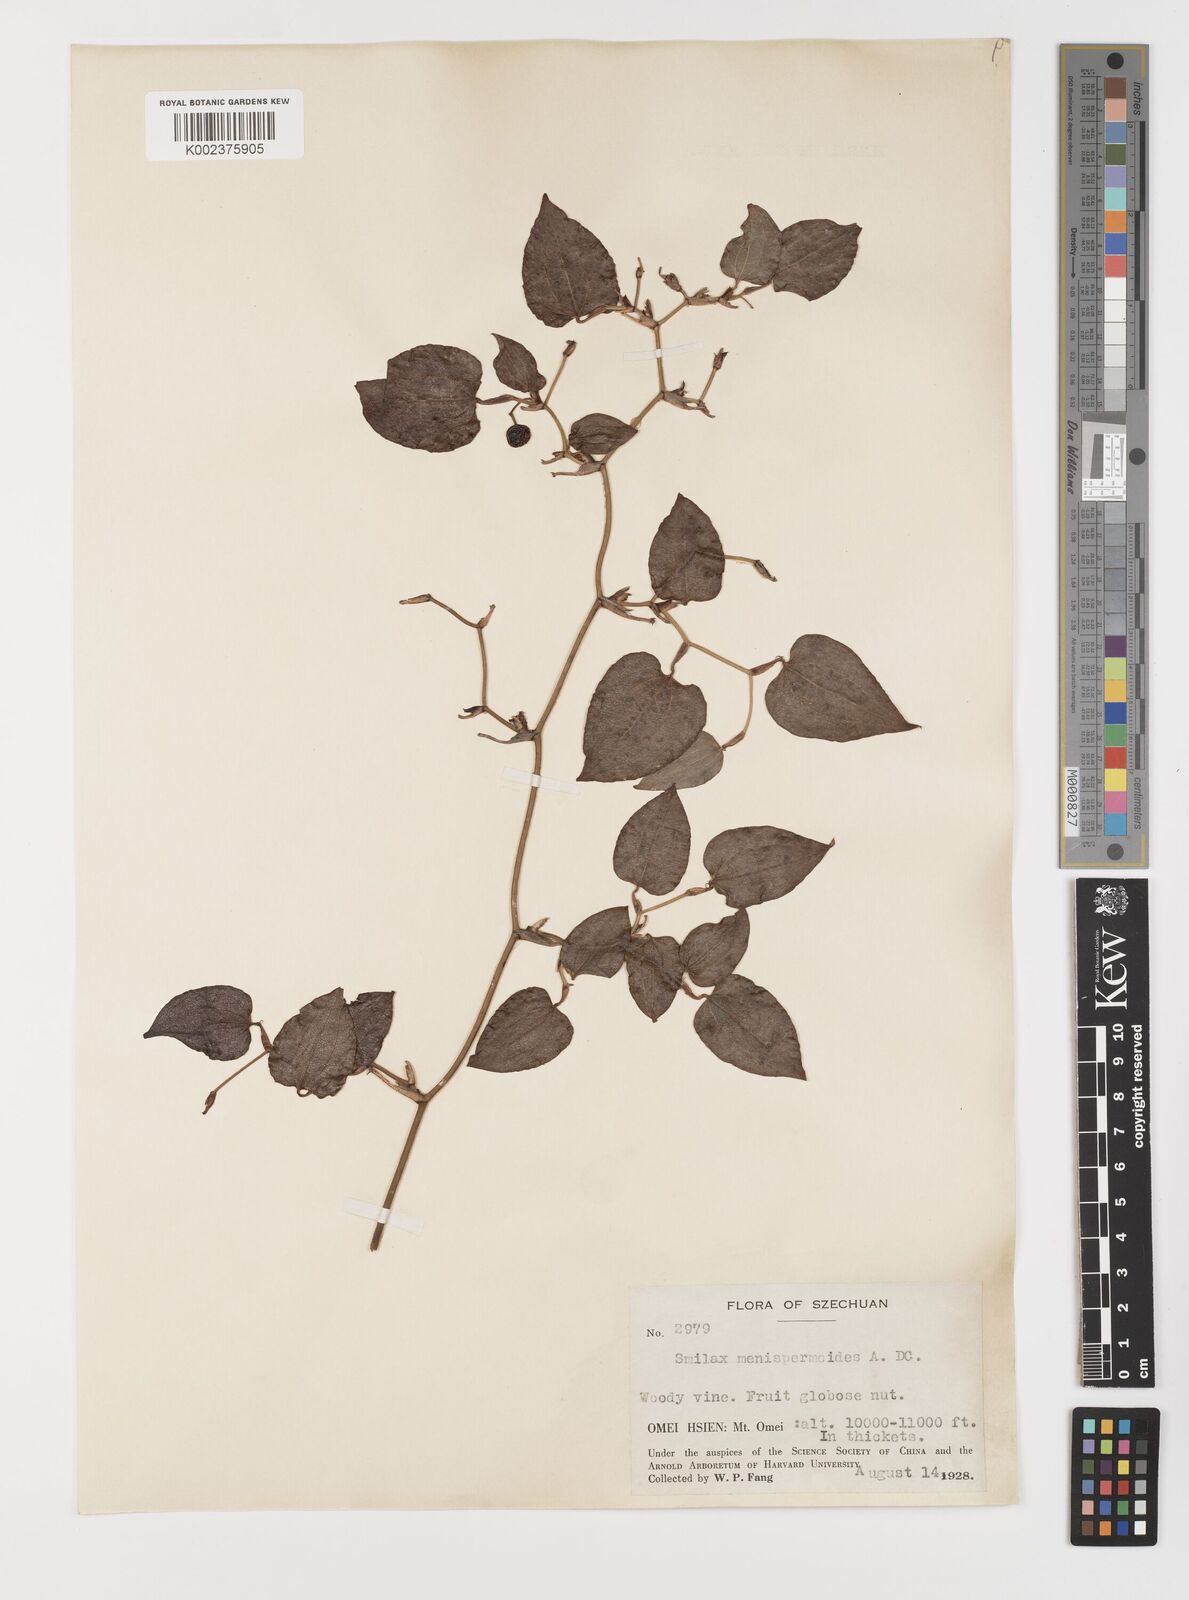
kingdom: Plantae
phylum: Tracheophyta
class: Liliopsida
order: Liliales
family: Smilacaceae
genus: Smilax
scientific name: Smilax menispermoidea
